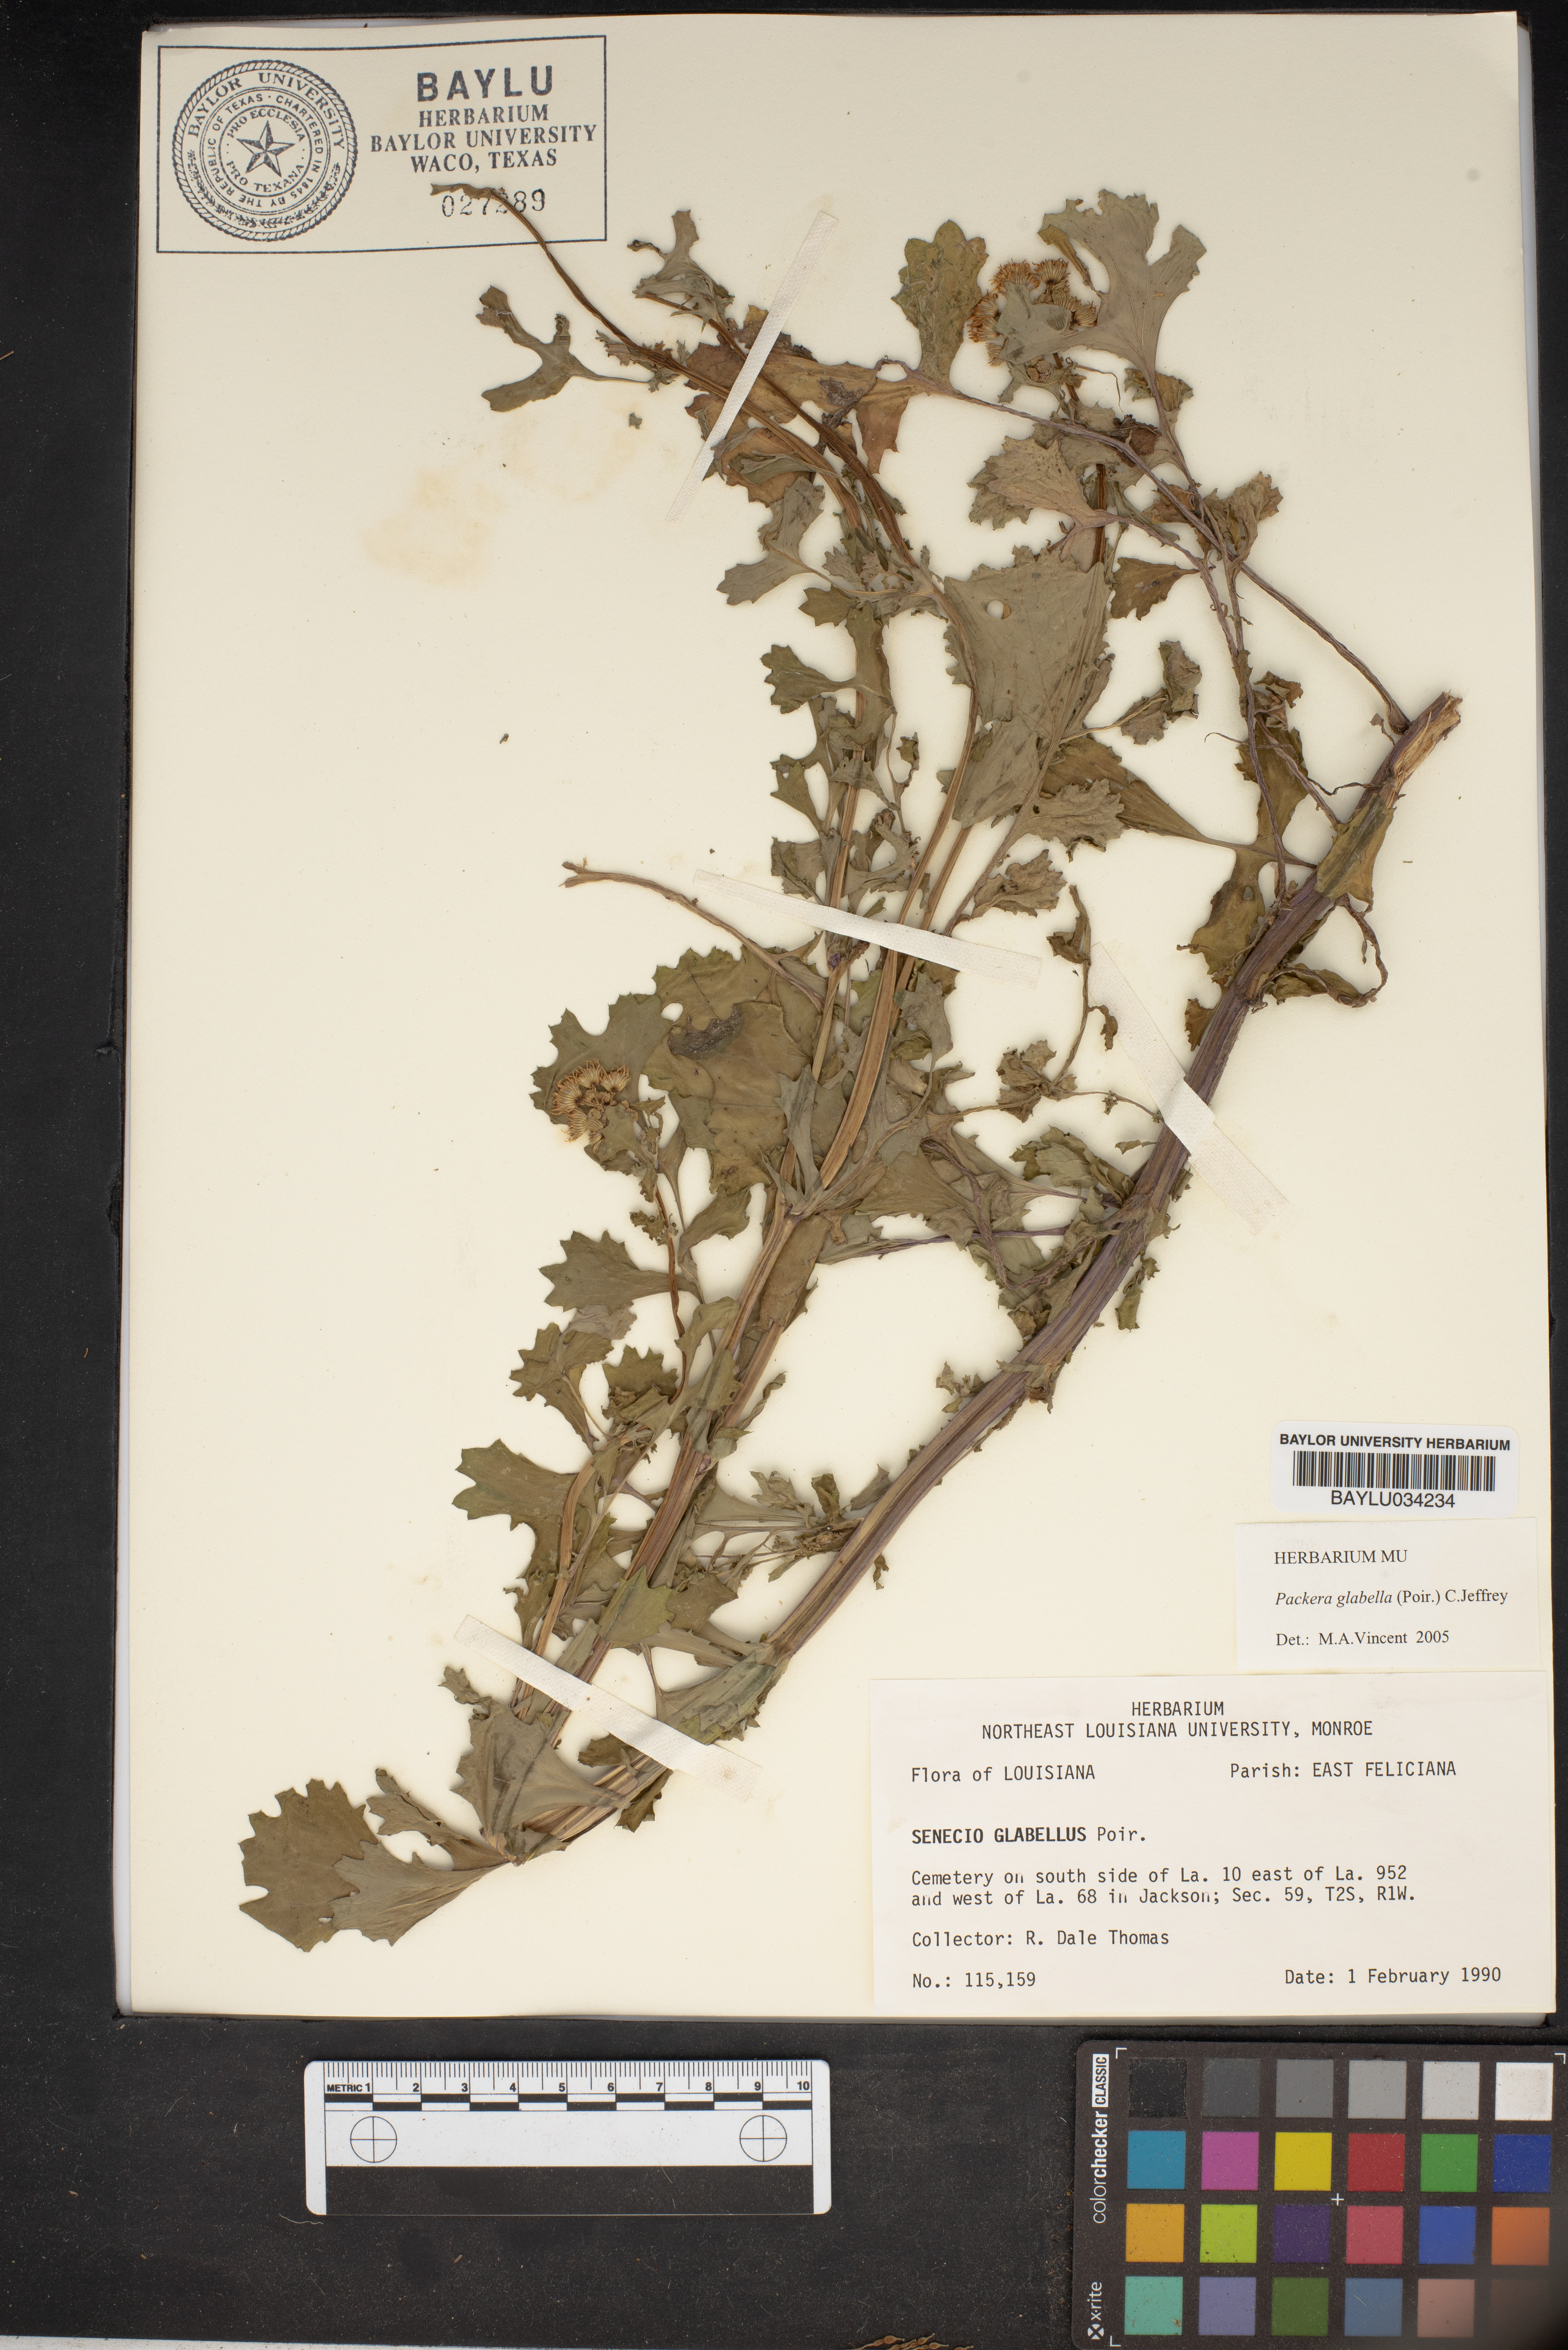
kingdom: Plantae
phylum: Tracheophyta
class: Magnoliopsida
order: Asterales
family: Asteraceae
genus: Tephroseris
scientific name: Tephroseris praticola
